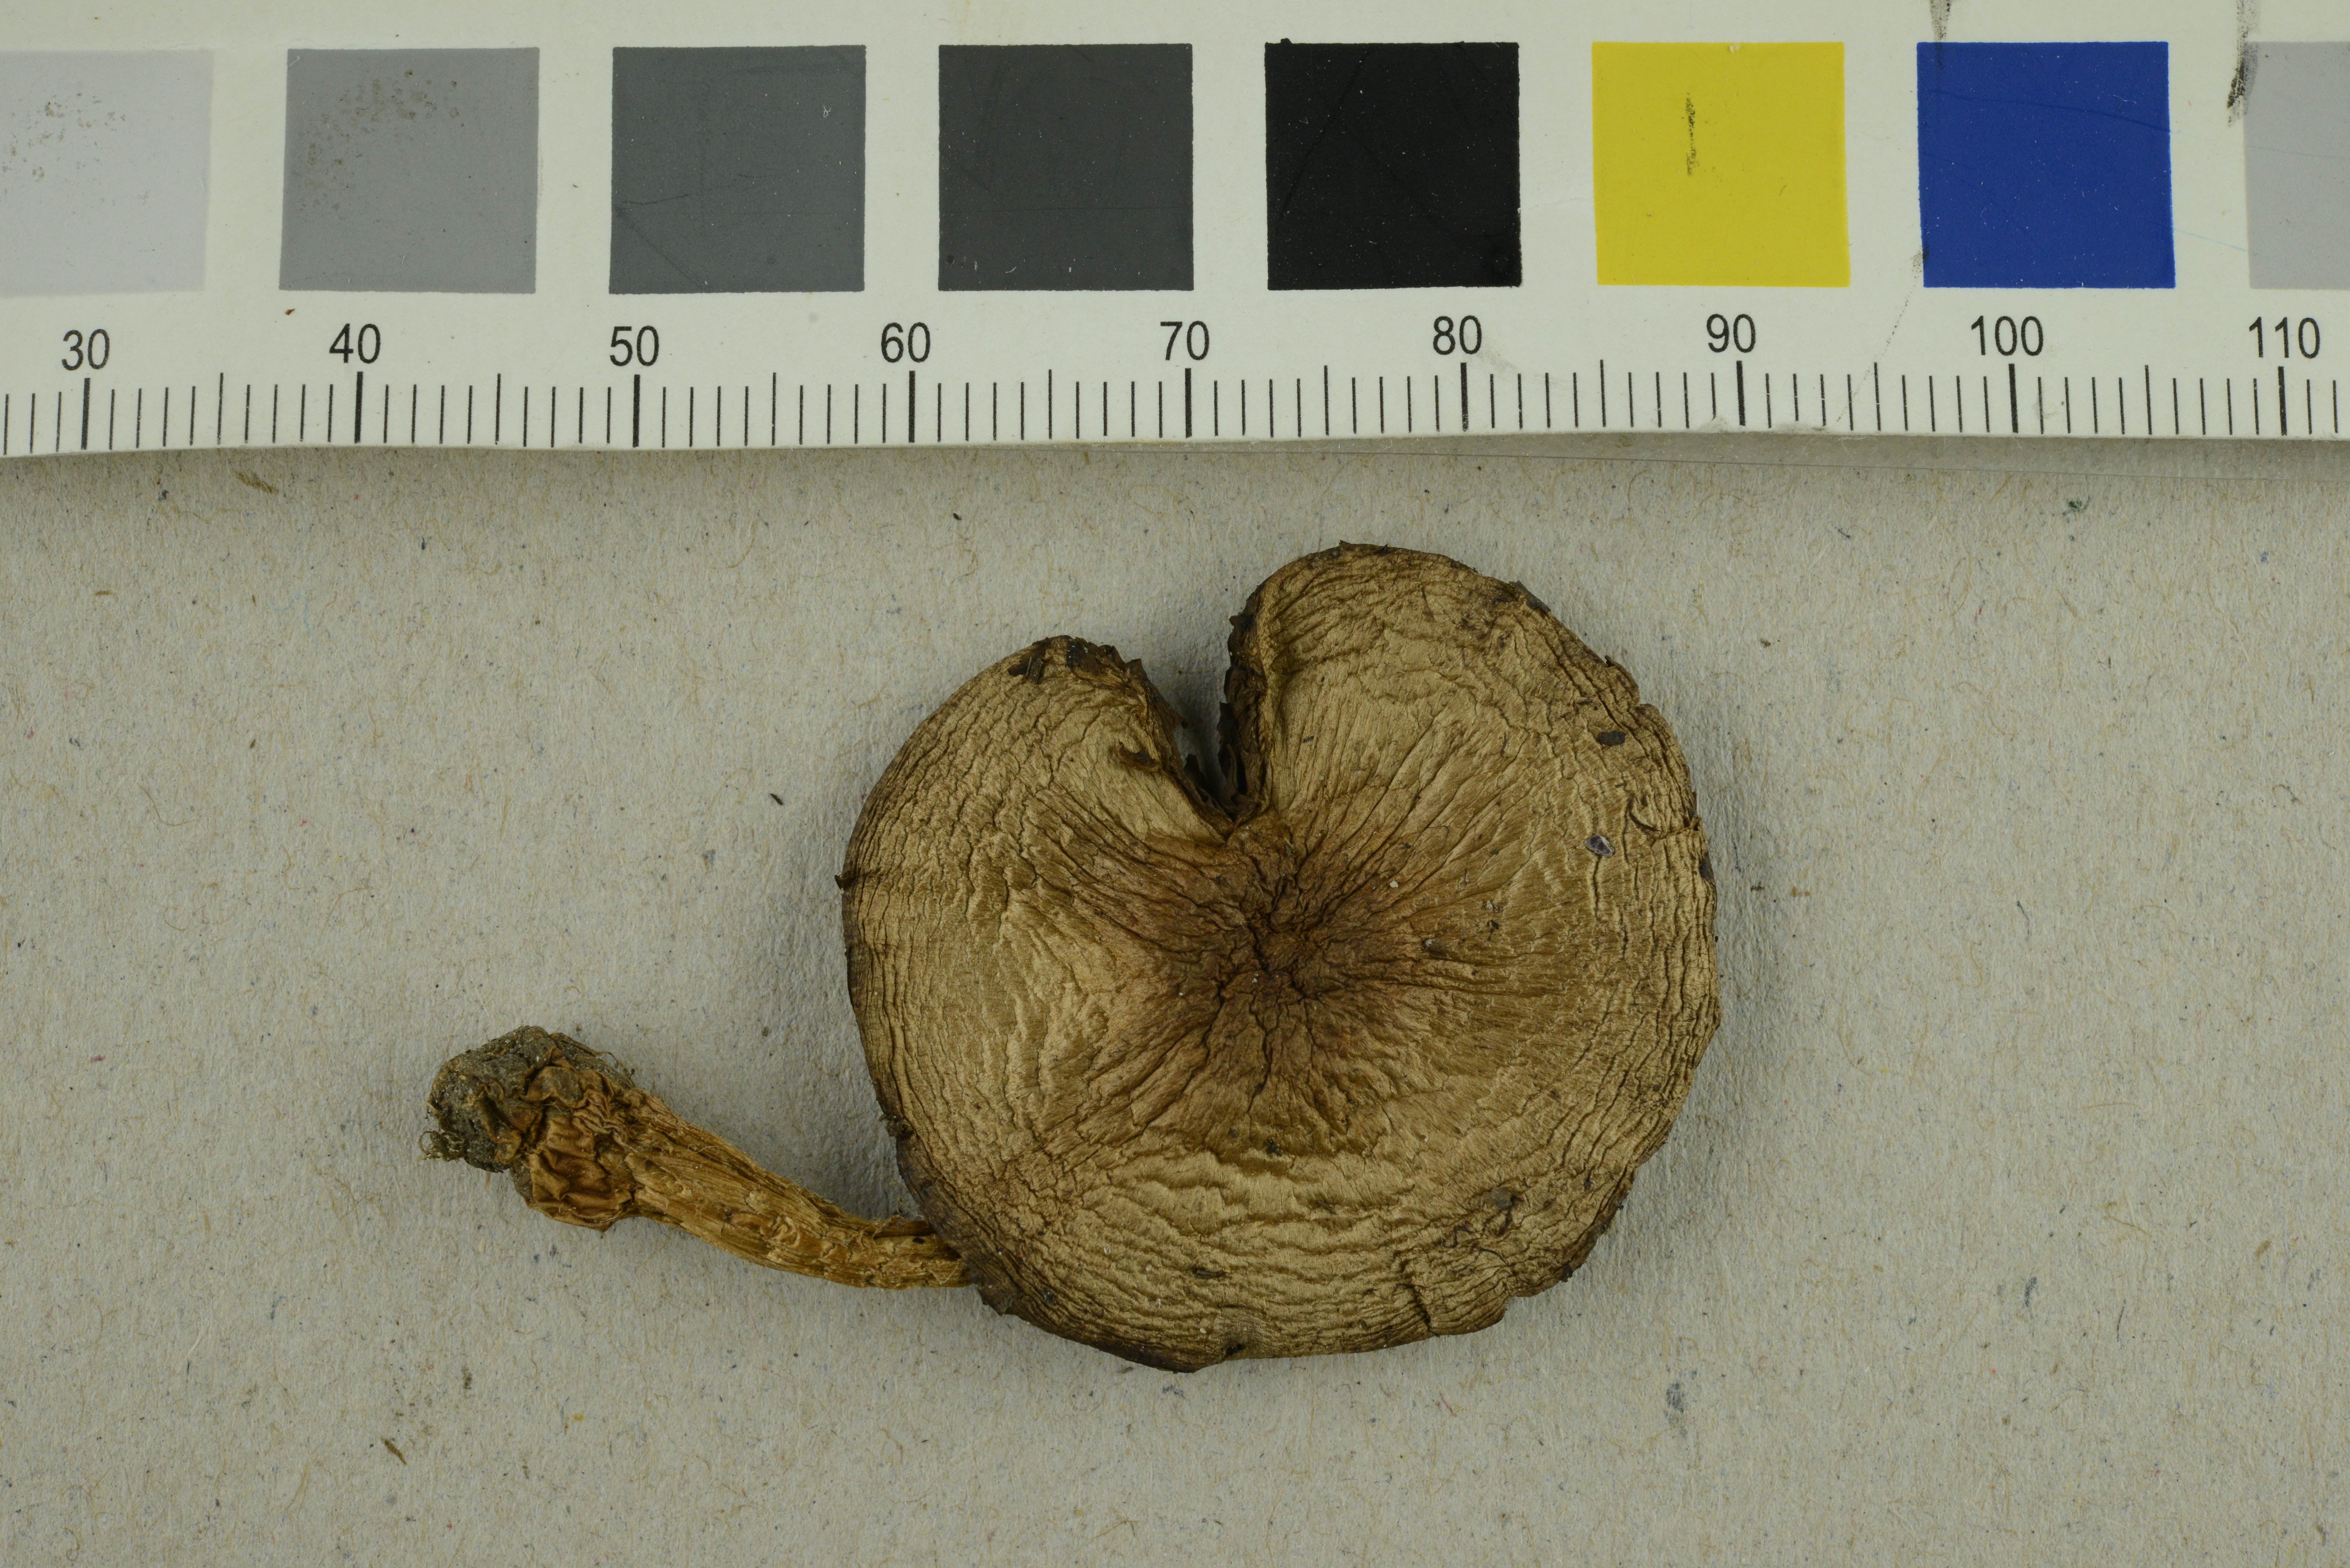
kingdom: Fungi
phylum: Basidiomycota
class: Agaricomycetes
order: Agaricales
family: Agaricaceae
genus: Agaricus
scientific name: Agaricus semotus
